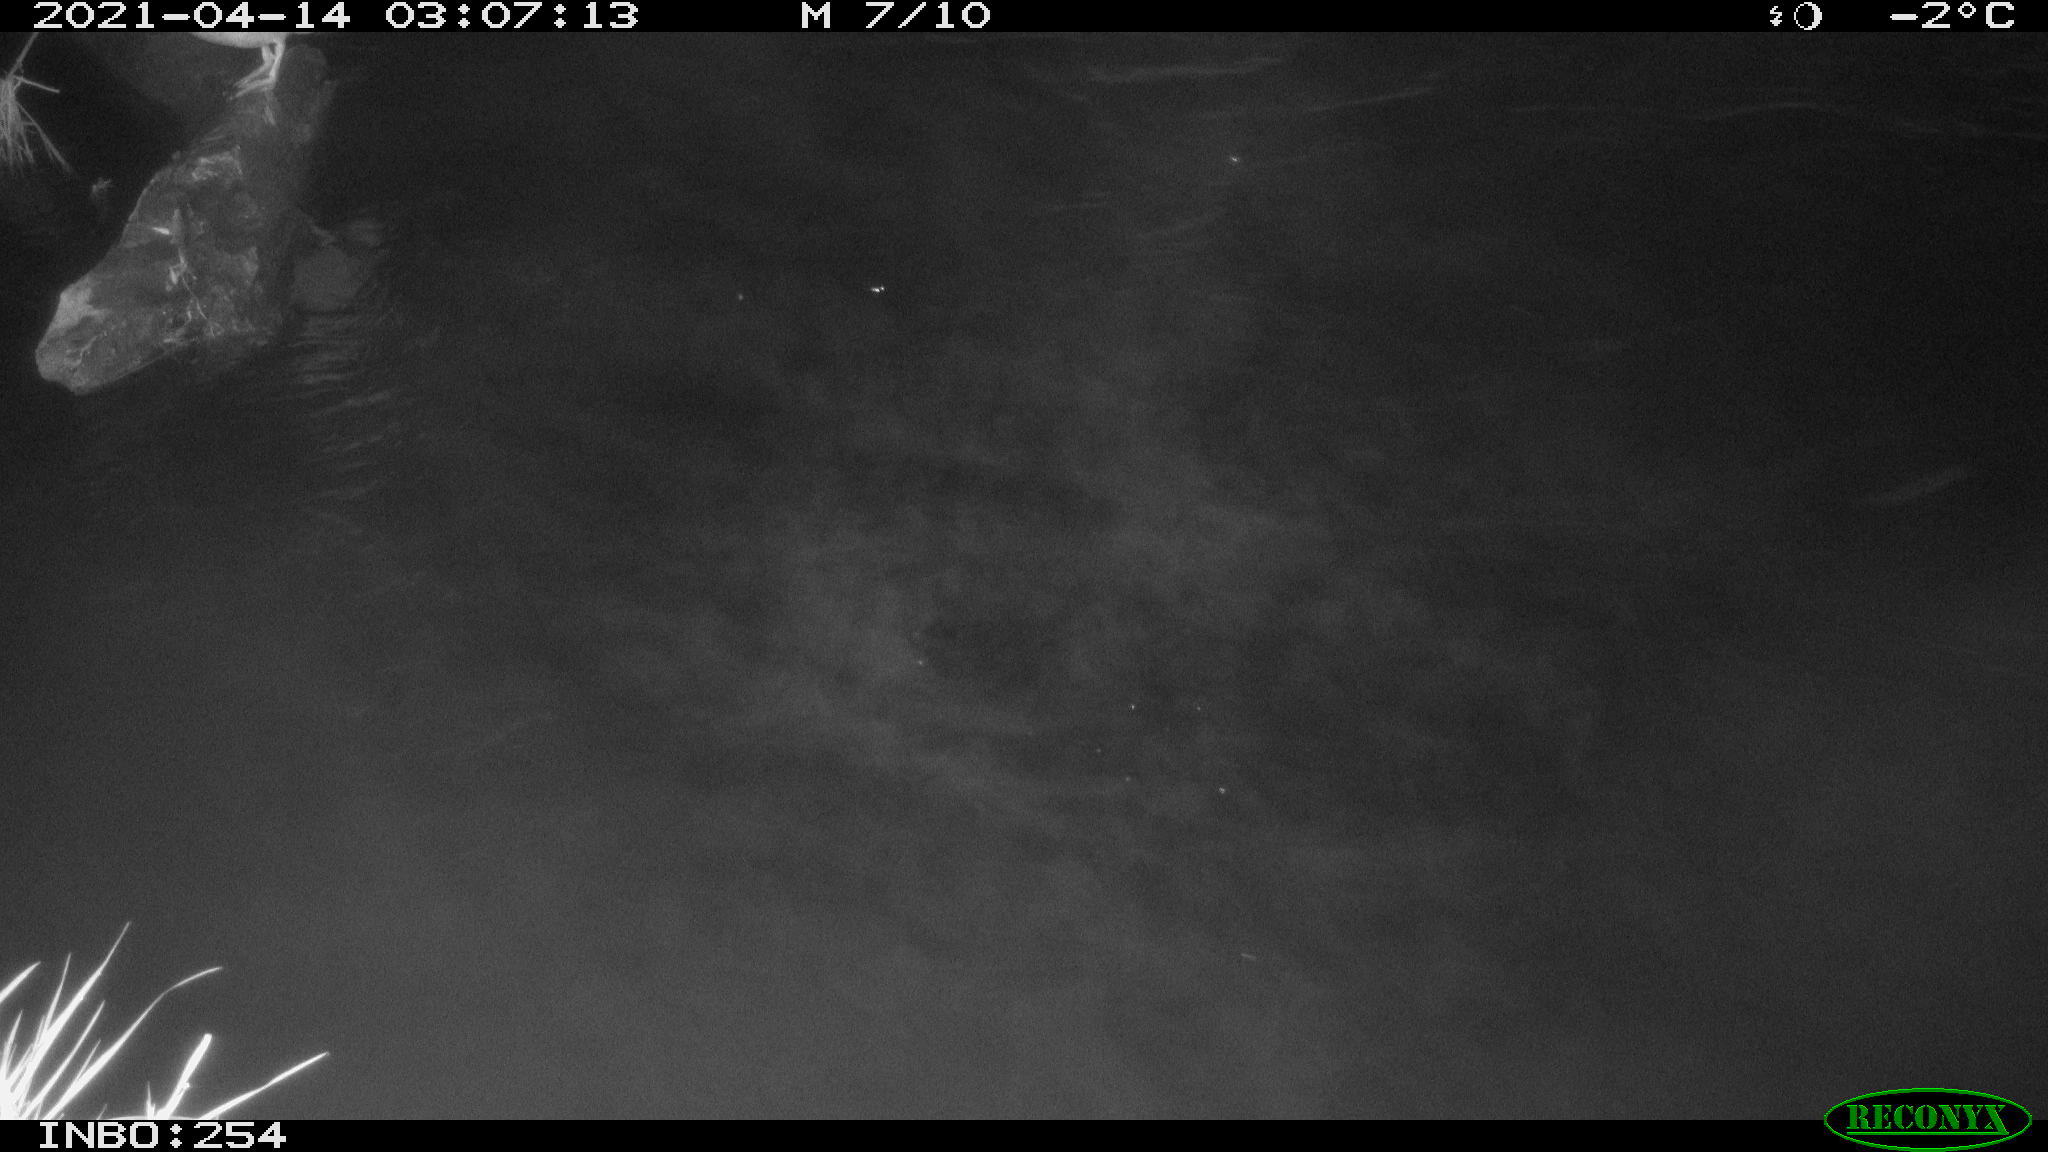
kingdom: Animalia
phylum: Chordata
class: Aves
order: Anseriformes
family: Anatidae
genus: Anas
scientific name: Anas
